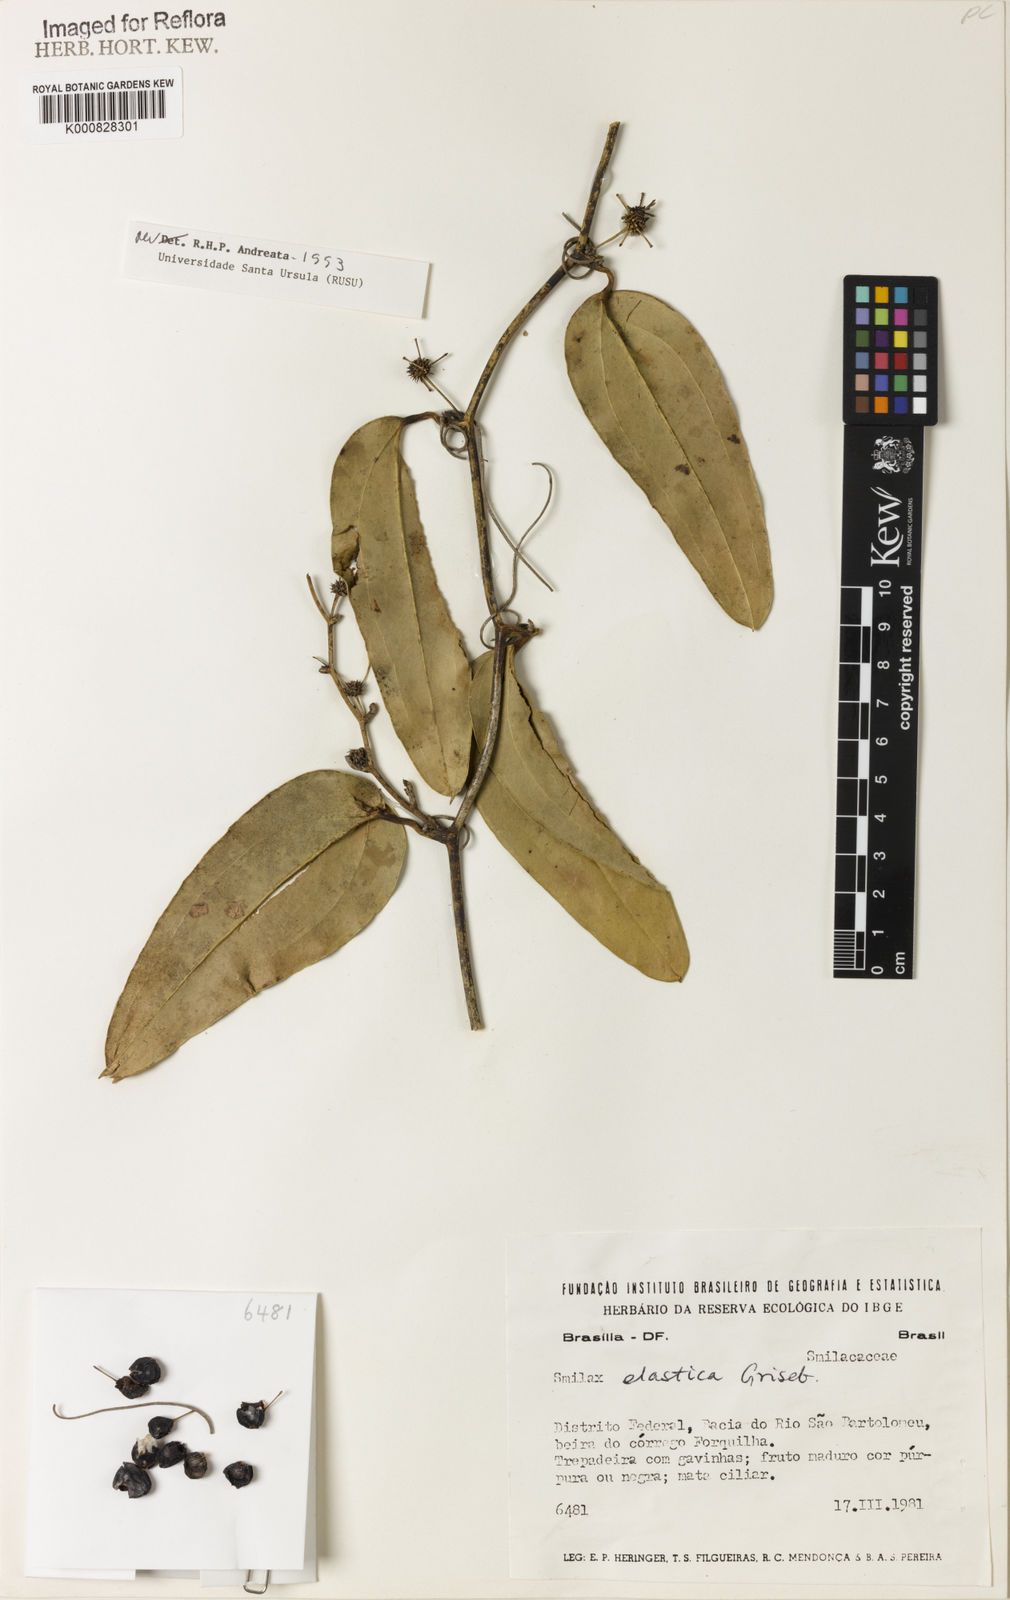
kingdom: Plantae
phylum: Tracheophyta
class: Liliopsida
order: Liliales
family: Smilacaceae
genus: Smilax
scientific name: Smilax elastica
